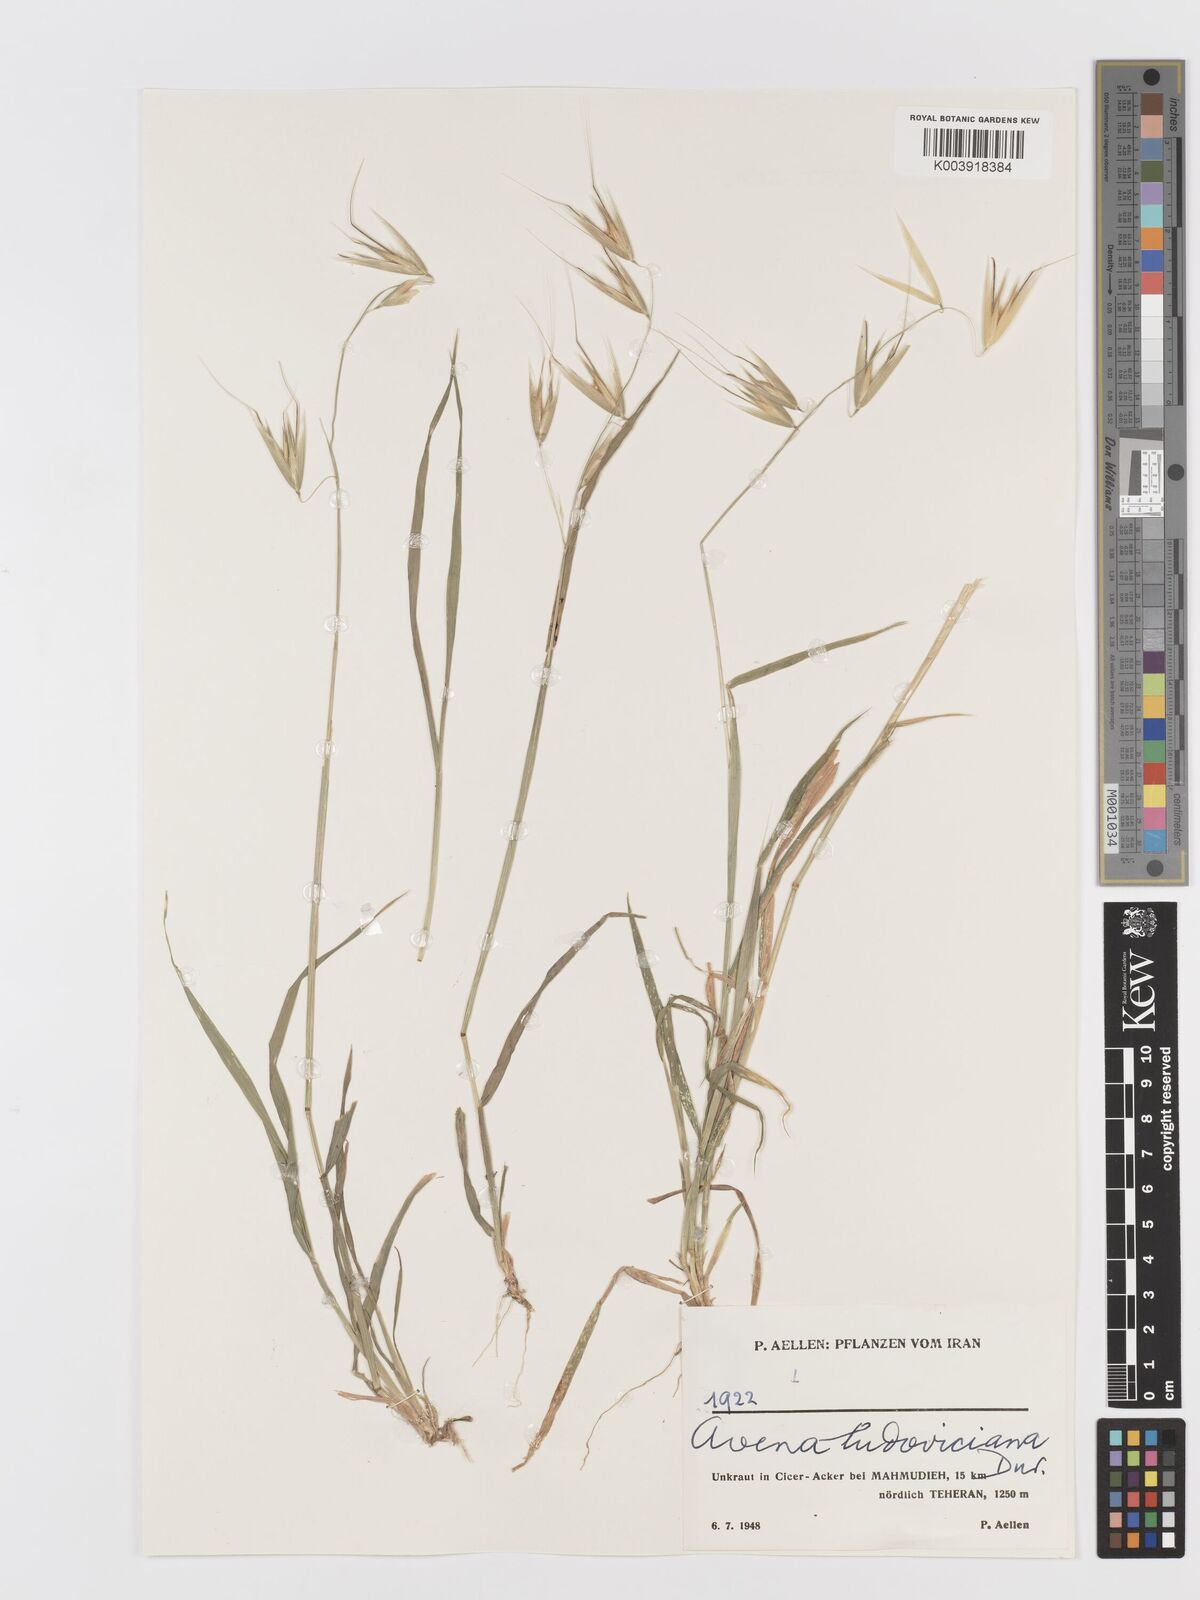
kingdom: Plantae
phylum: Tracheophyta
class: Liliopsida
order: Poales
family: Poaceae
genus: Avena
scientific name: Avena sterilis
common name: Animated oat
